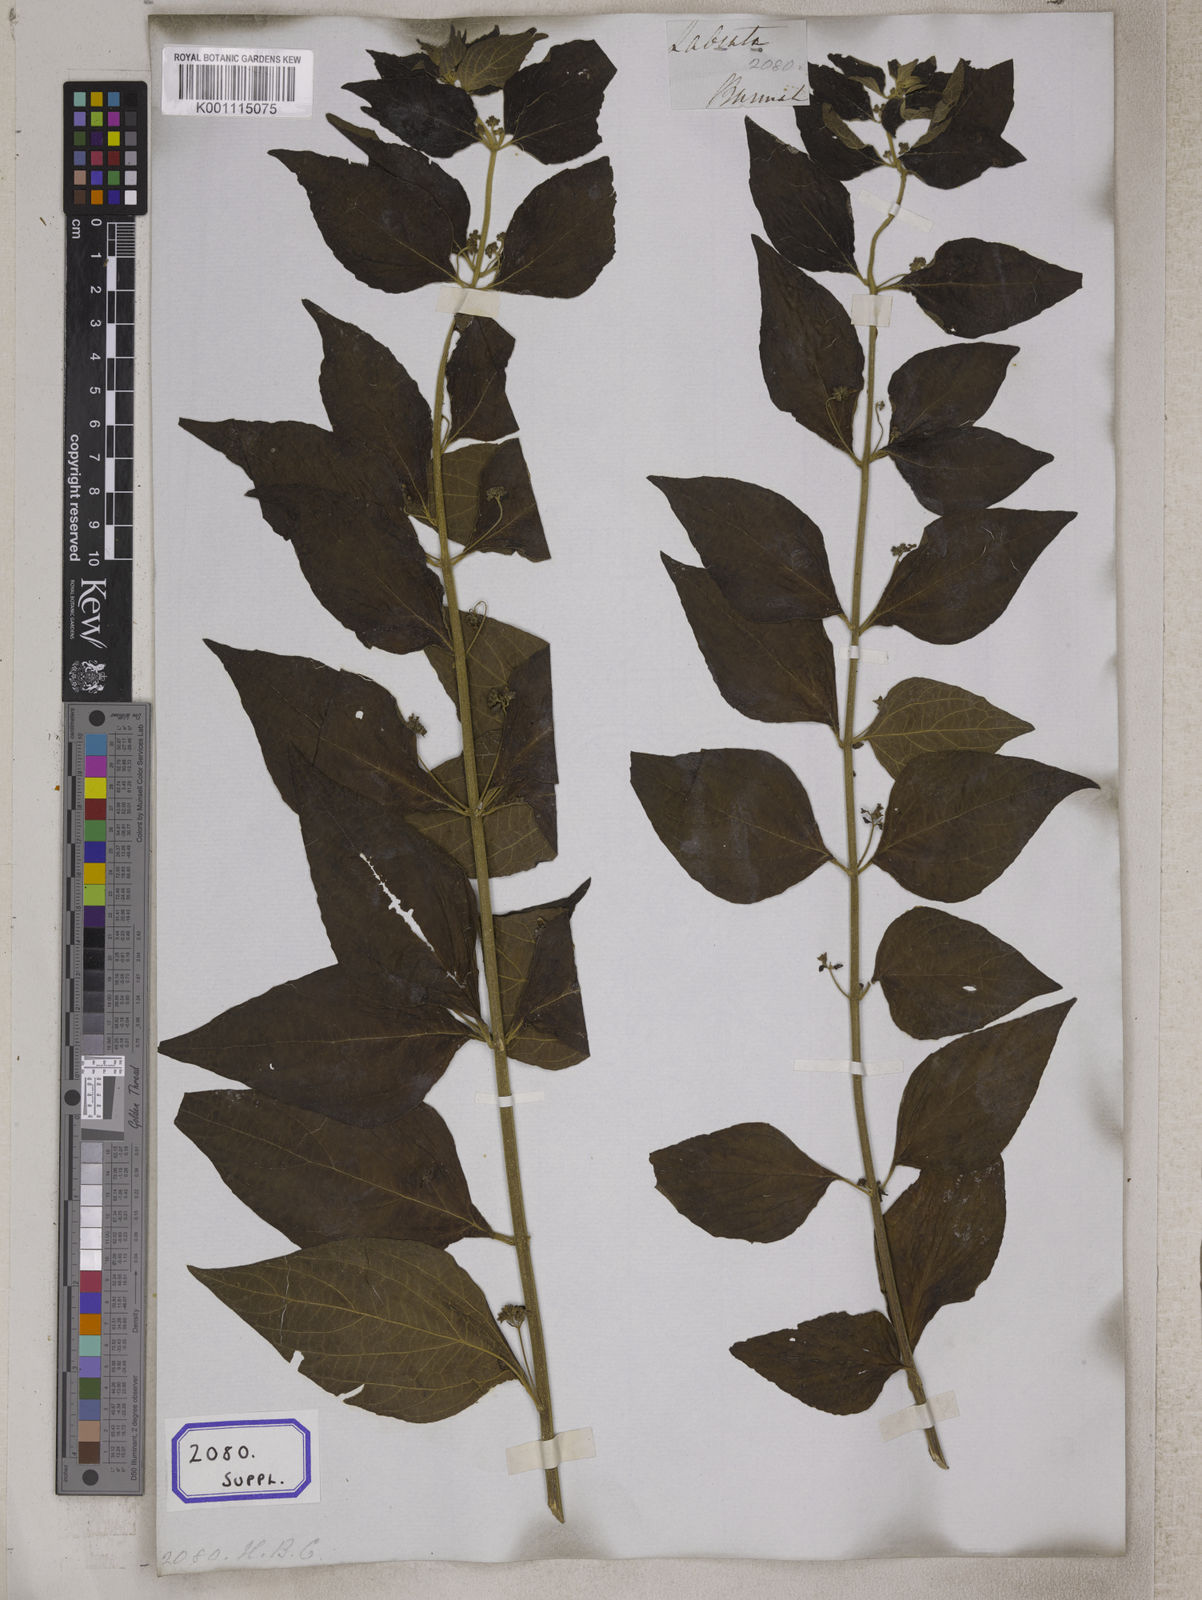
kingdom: Plantae
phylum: Tracheophyta
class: Magnoliopsida
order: Lamiales
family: Lamiaceae
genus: Cymaria
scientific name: Cymaria dichotoma
